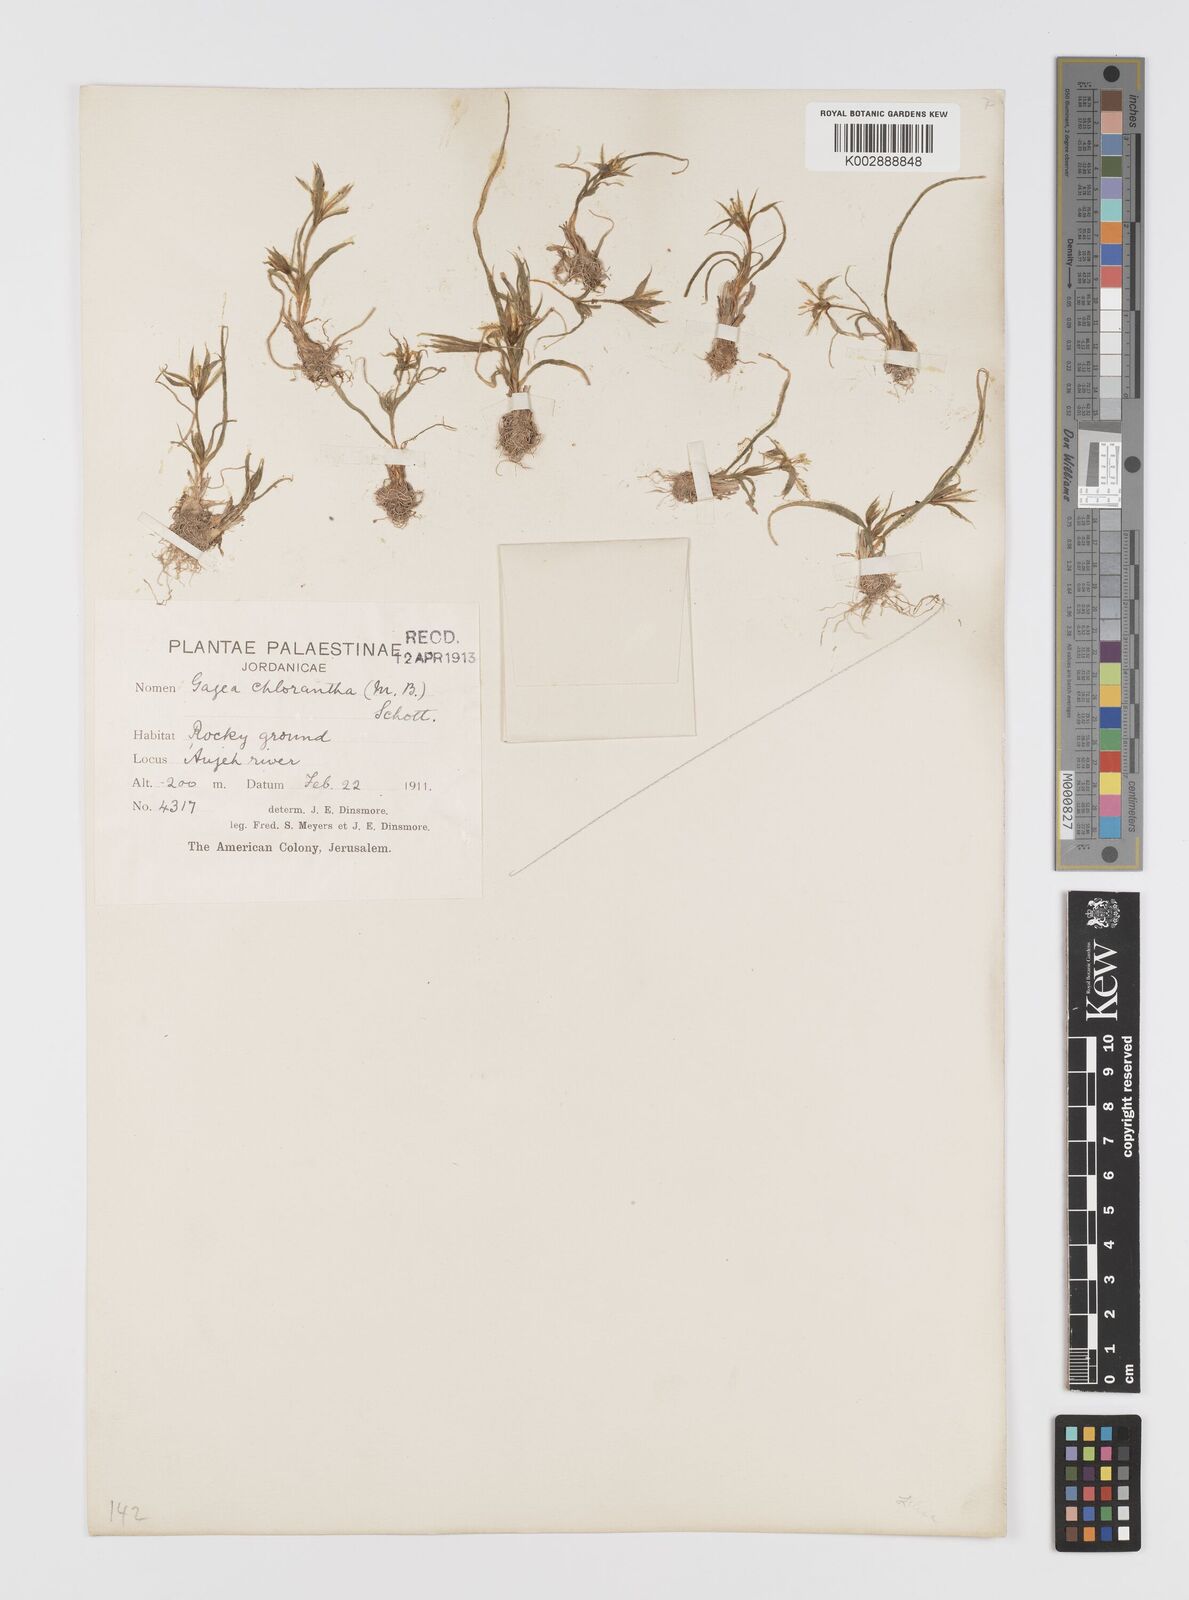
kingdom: Plantae
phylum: Tracheophyta
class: Liliopsida
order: Liliales
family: Liliaceae
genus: Gagea
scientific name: Gagea
